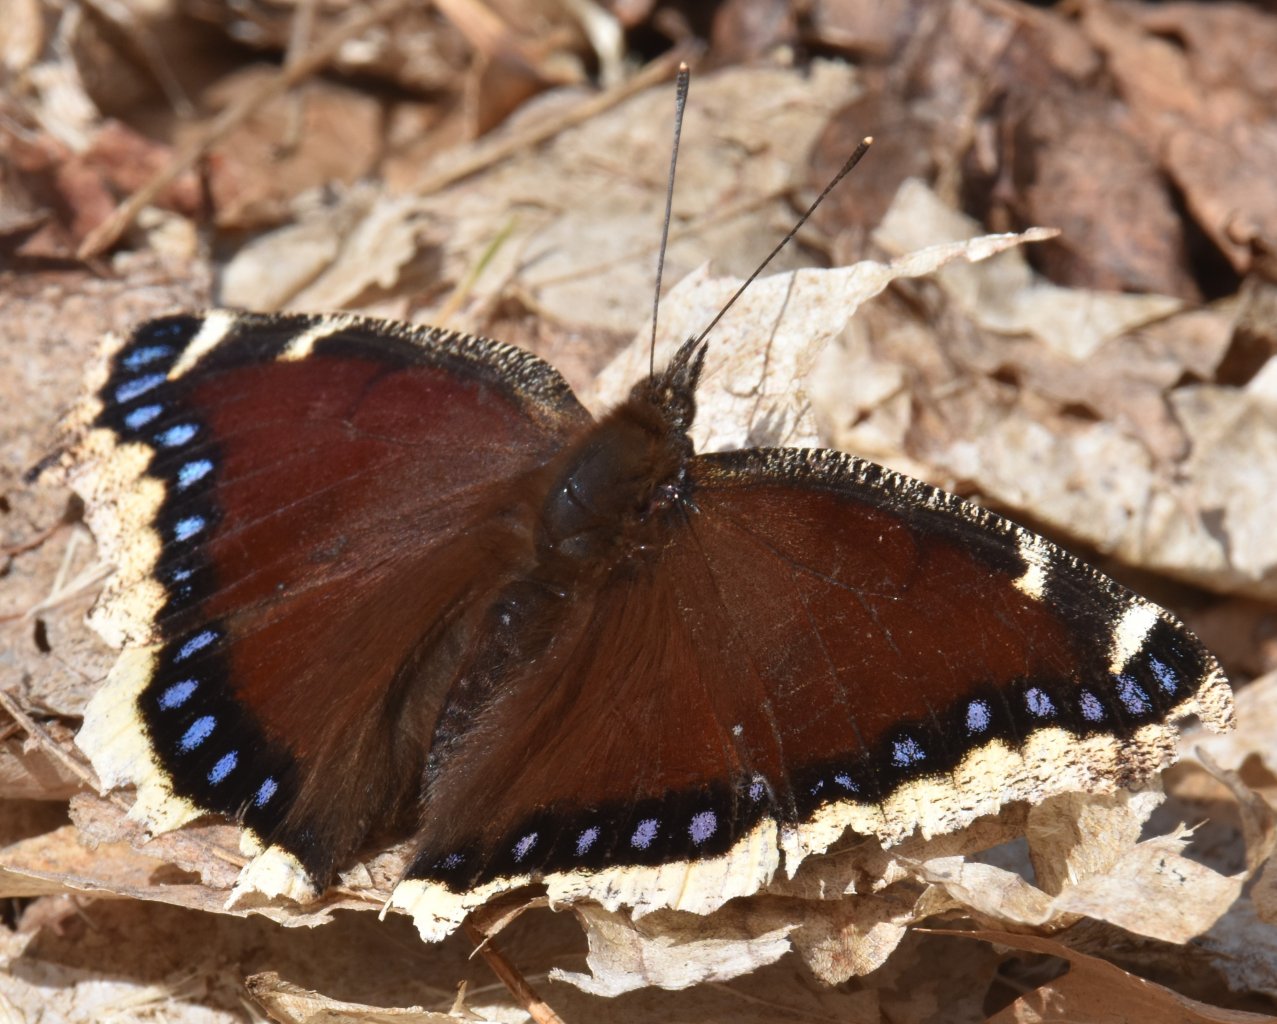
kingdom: Animalia
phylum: Arthropoda
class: Insecta
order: Lepidoptera
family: Nymphalidae
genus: Nymphalis
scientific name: Nymphalis antiopa
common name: Mourning Cloak
